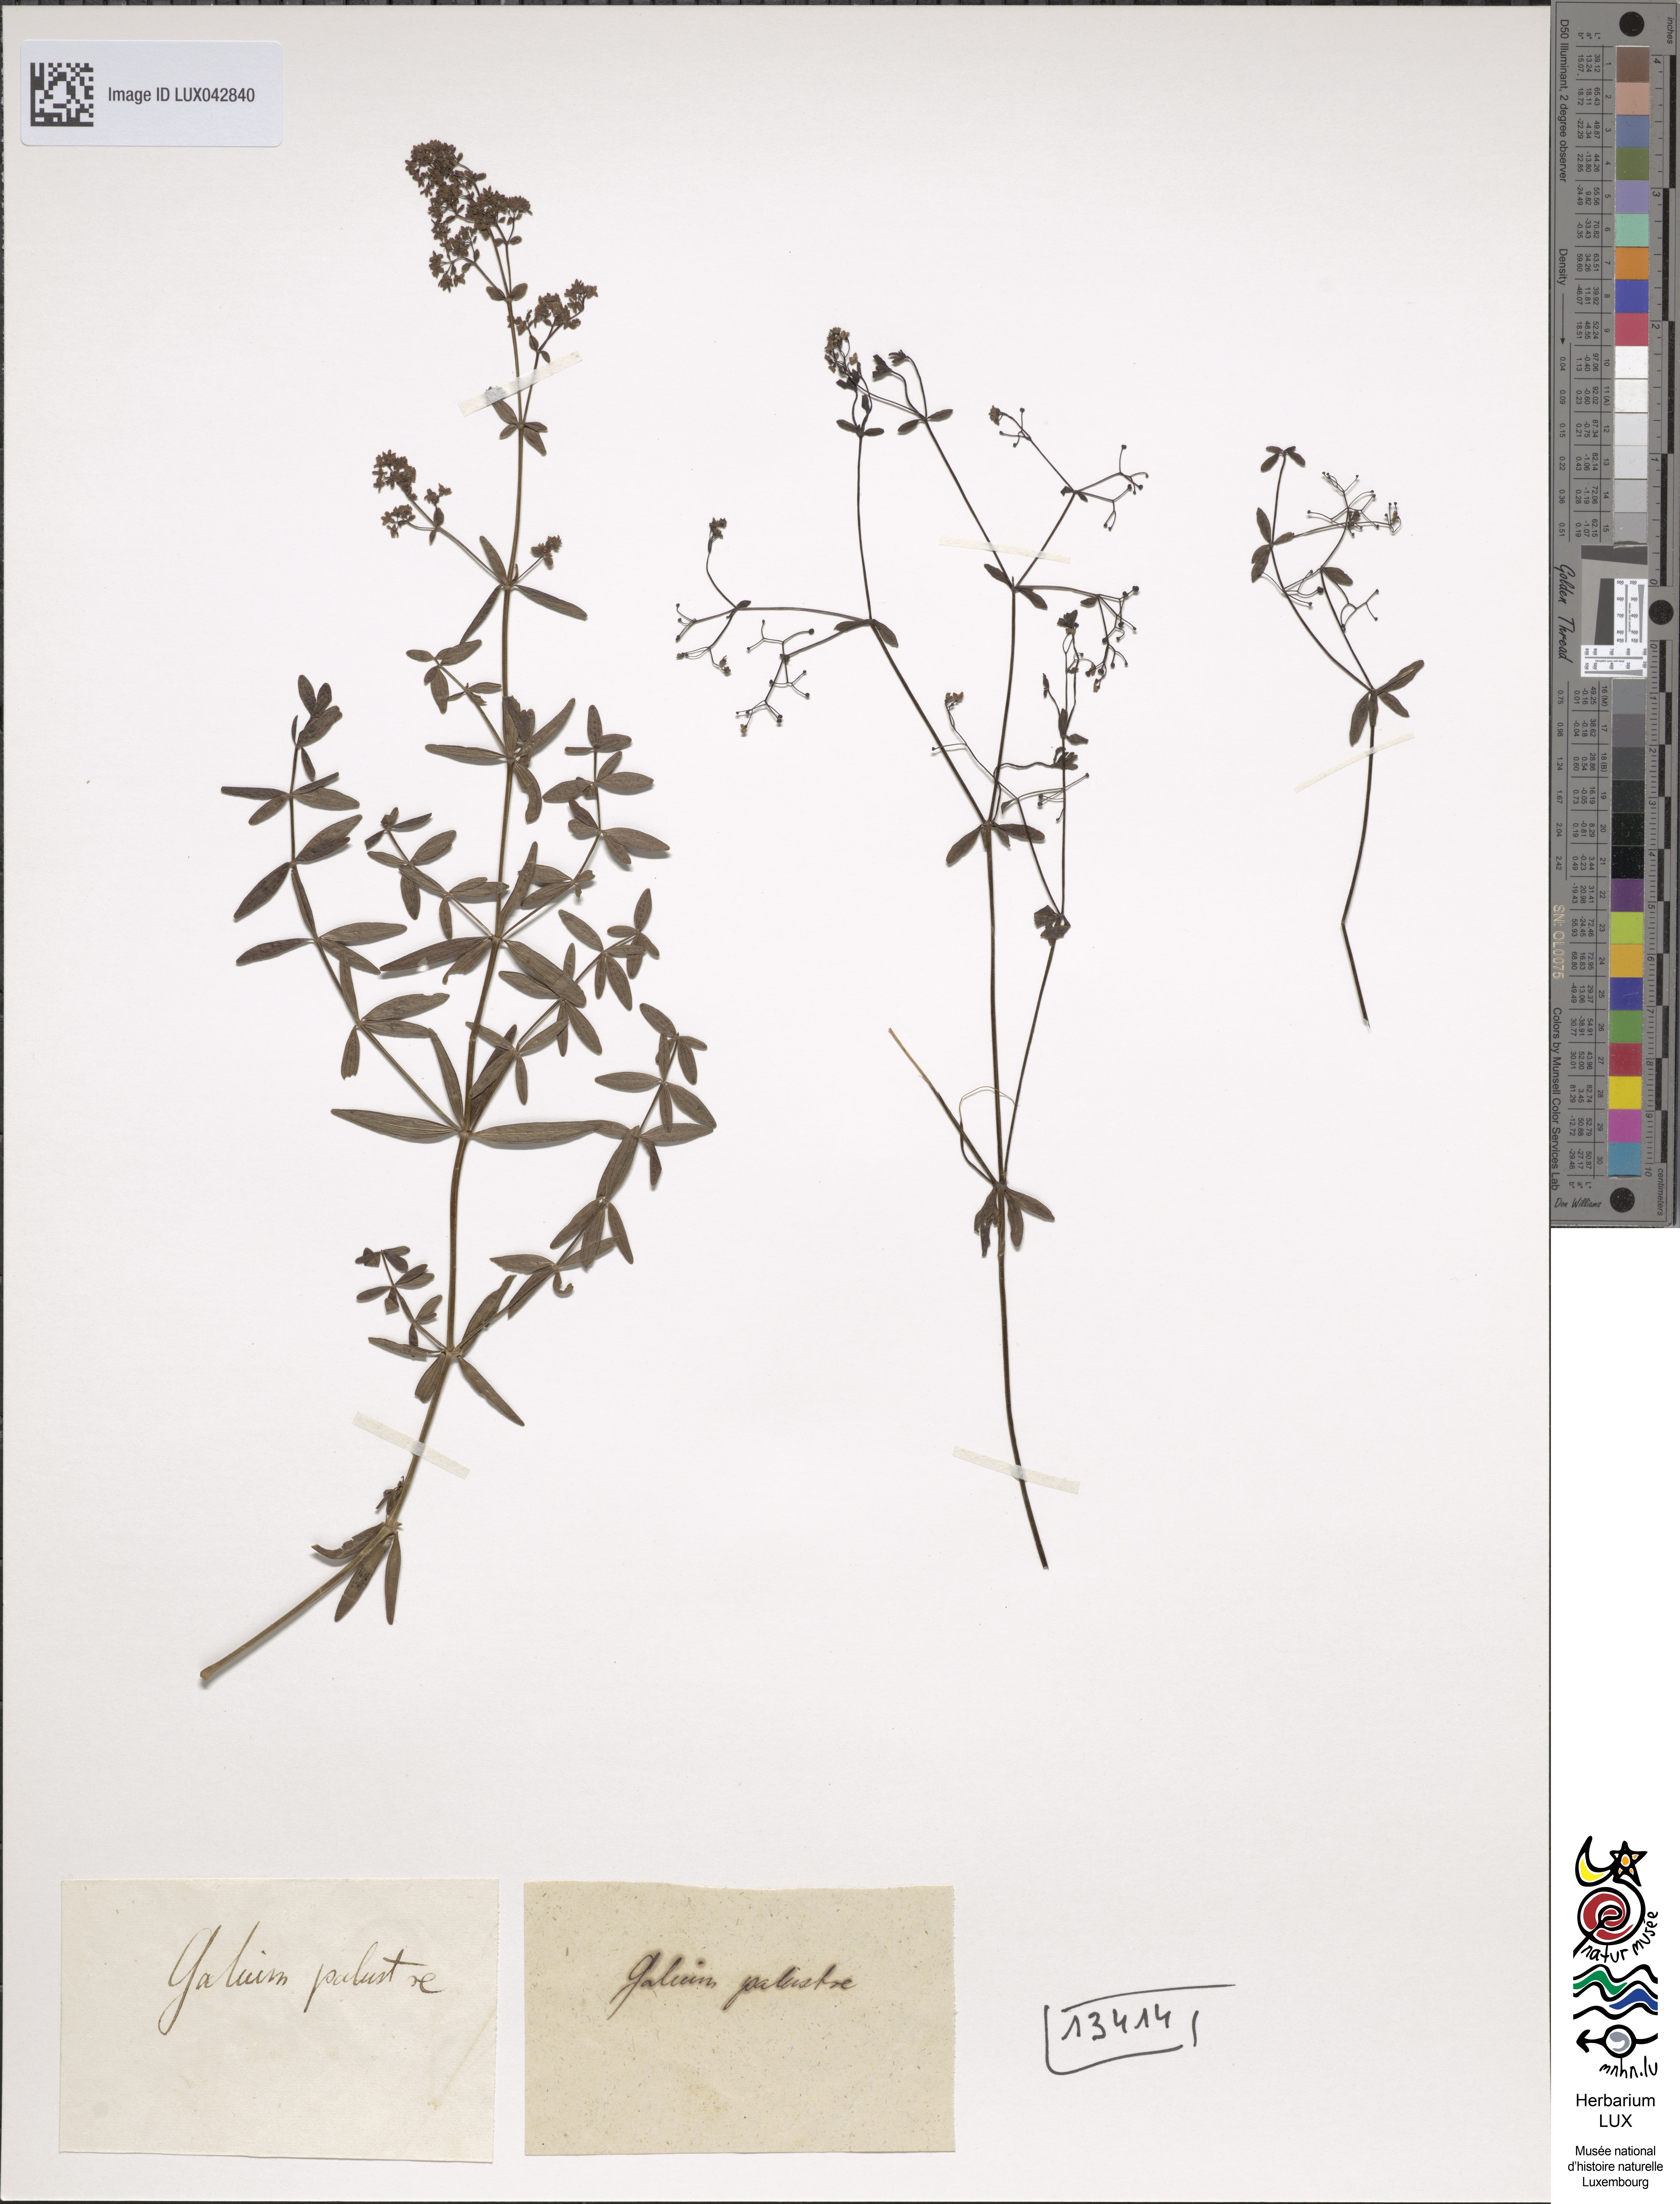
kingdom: Plantae
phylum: Tracheophyta
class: Magnoliopsida
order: Gentianales
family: Rubiaceae
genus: Galium
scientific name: Galium palustre
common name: Common marsh-bedstraw
